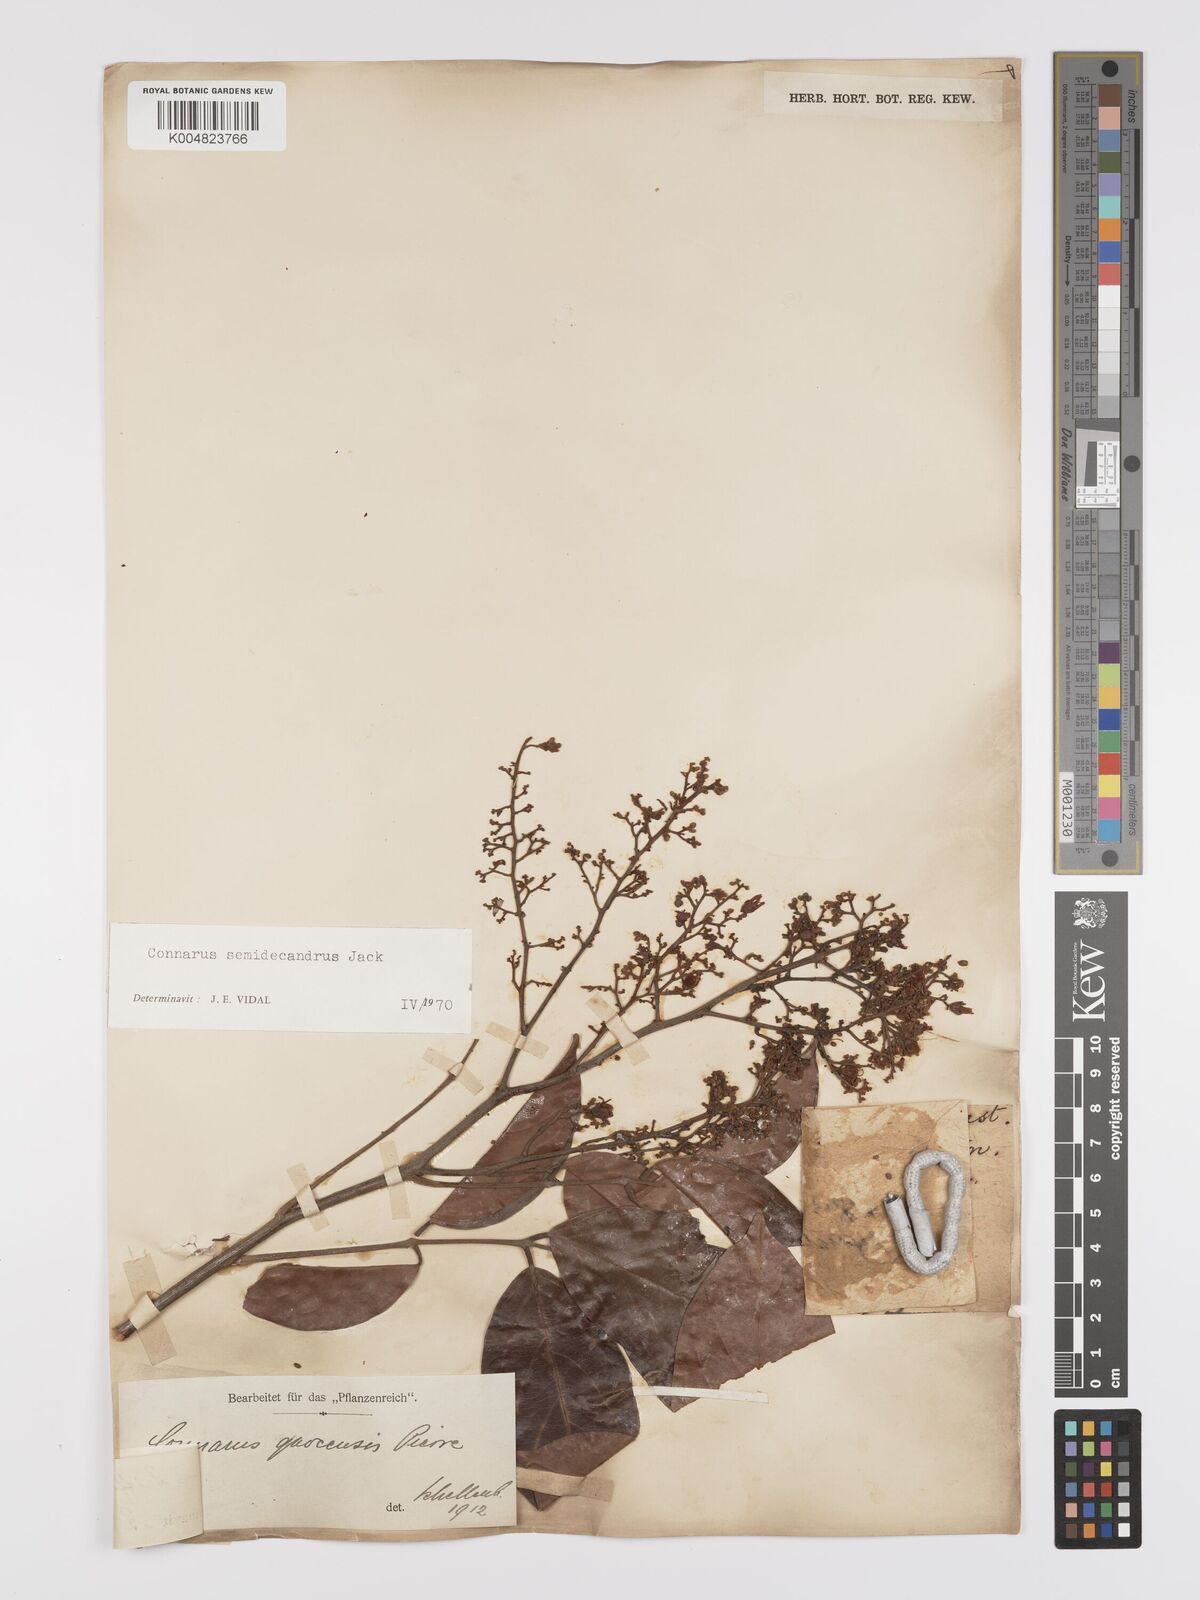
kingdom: Plantae
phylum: Tracheophyta
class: Magnoliopsida
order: Oxalidales
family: Connaraceae
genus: Connarus
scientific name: Connarus semidecandrus
